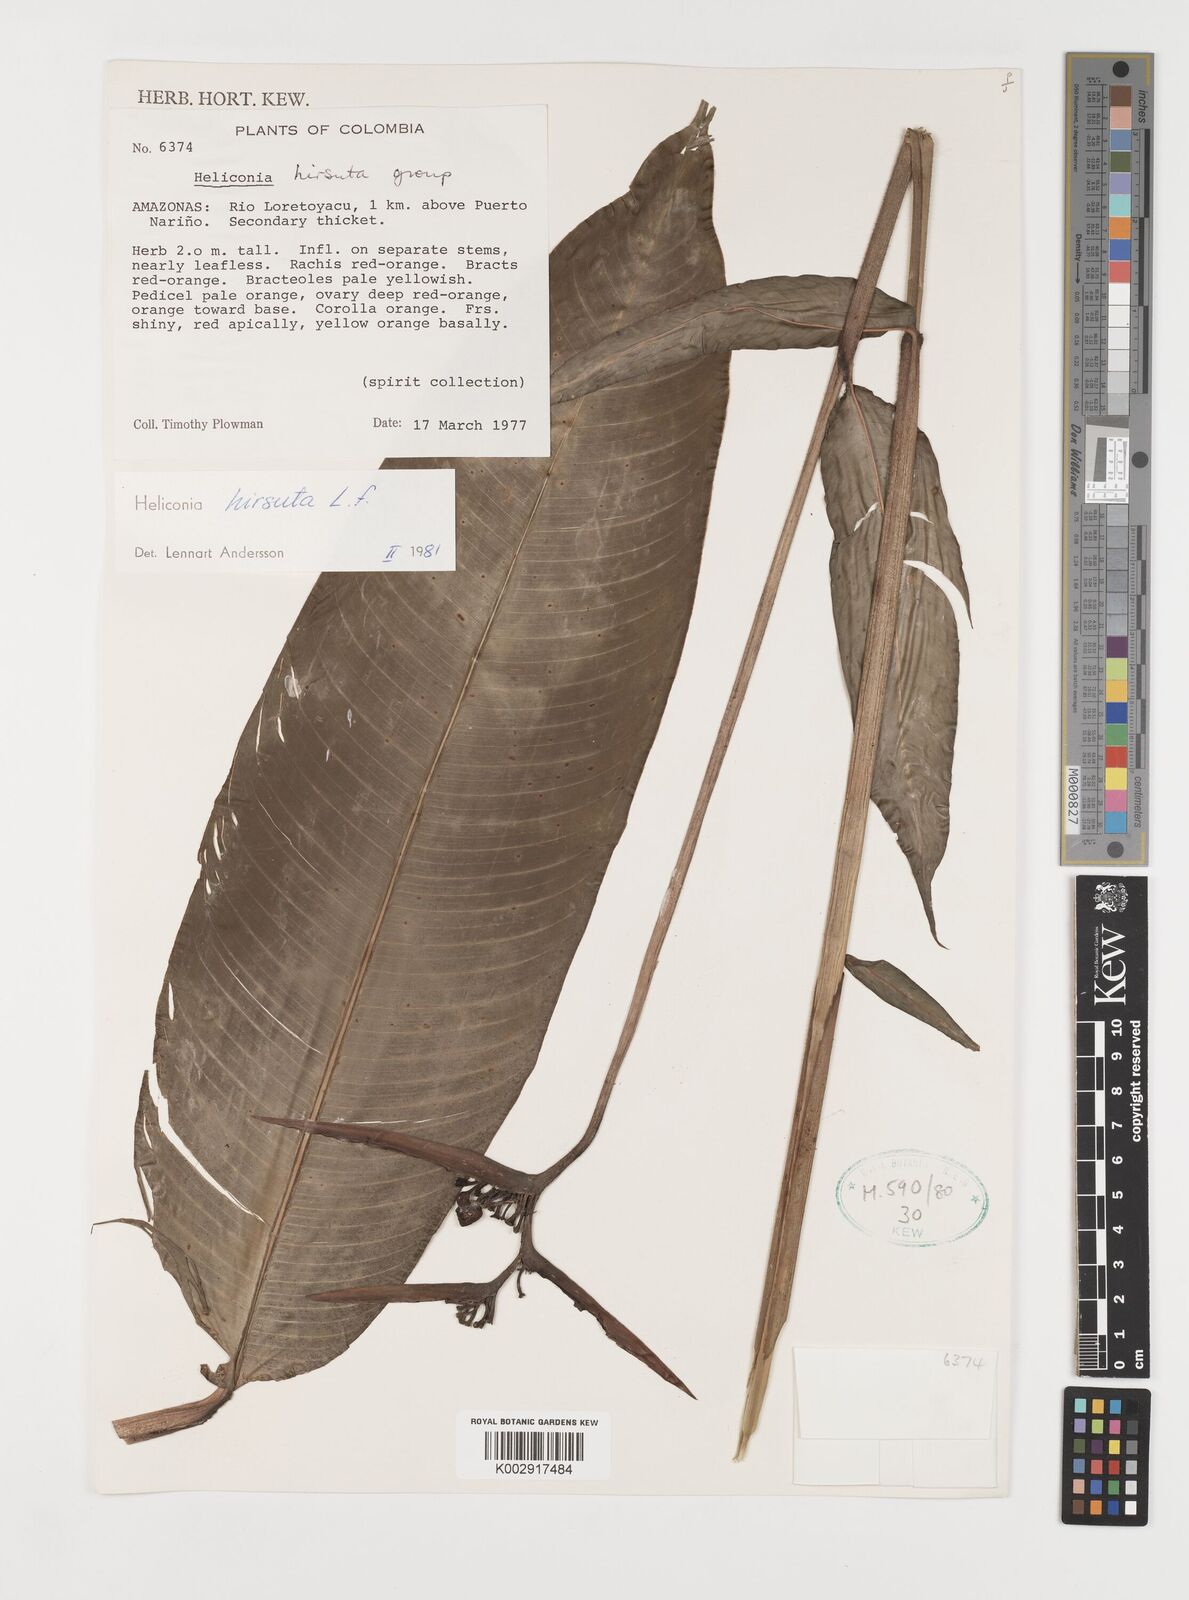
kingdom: Plantae
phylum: Tracheophyta
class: Liliopsida
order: Zingiberales
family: Heliconiaceae
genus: Heliconia
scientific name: Heliconia schiedeana
